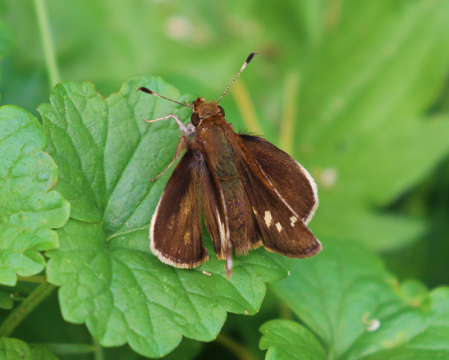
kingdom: Animalia
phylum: Arthropoda
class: Insecta
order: Lepidoptera
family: Hesperiidae
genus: Lon
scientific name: Lon zabulon
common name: Zabulon Skipper
